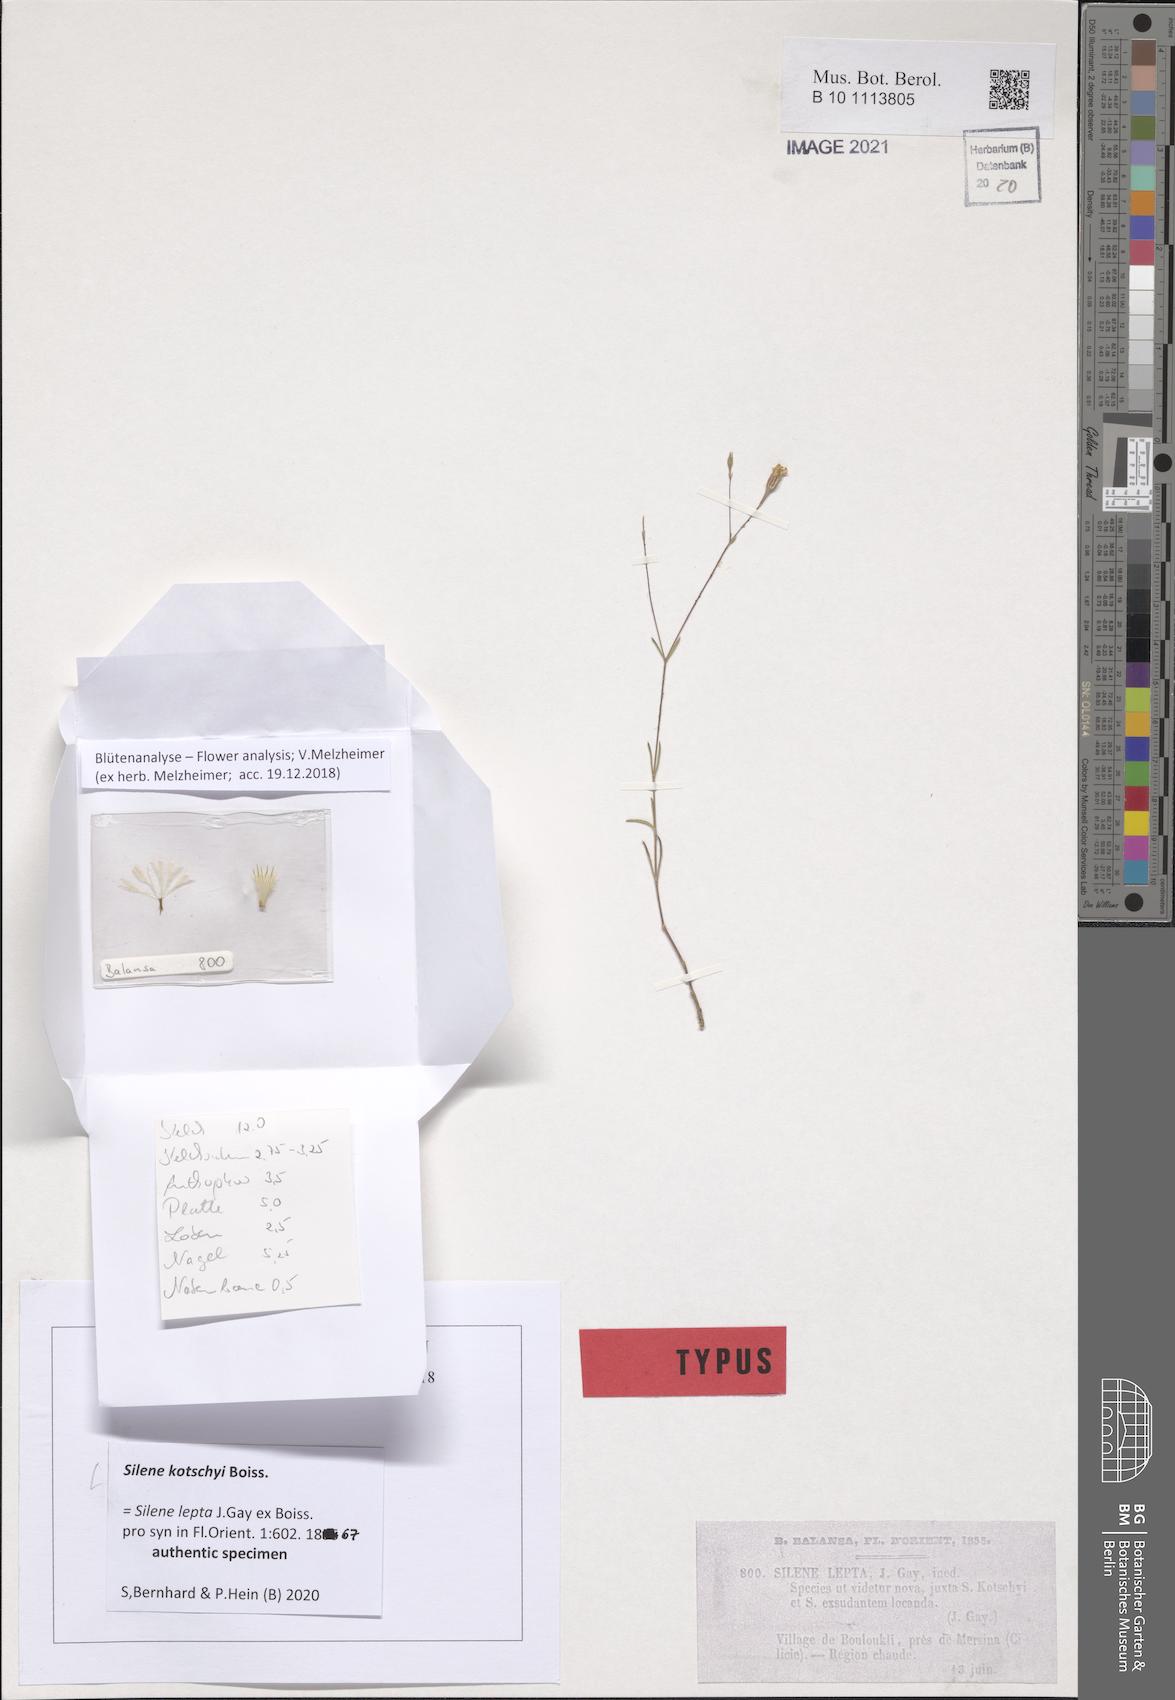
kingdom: Plantae
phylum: Tracheophyta
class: Magnoliopsida
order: Caryophyllales
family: Caryophyllaceae
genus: Silene
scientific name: Silene microsperma
